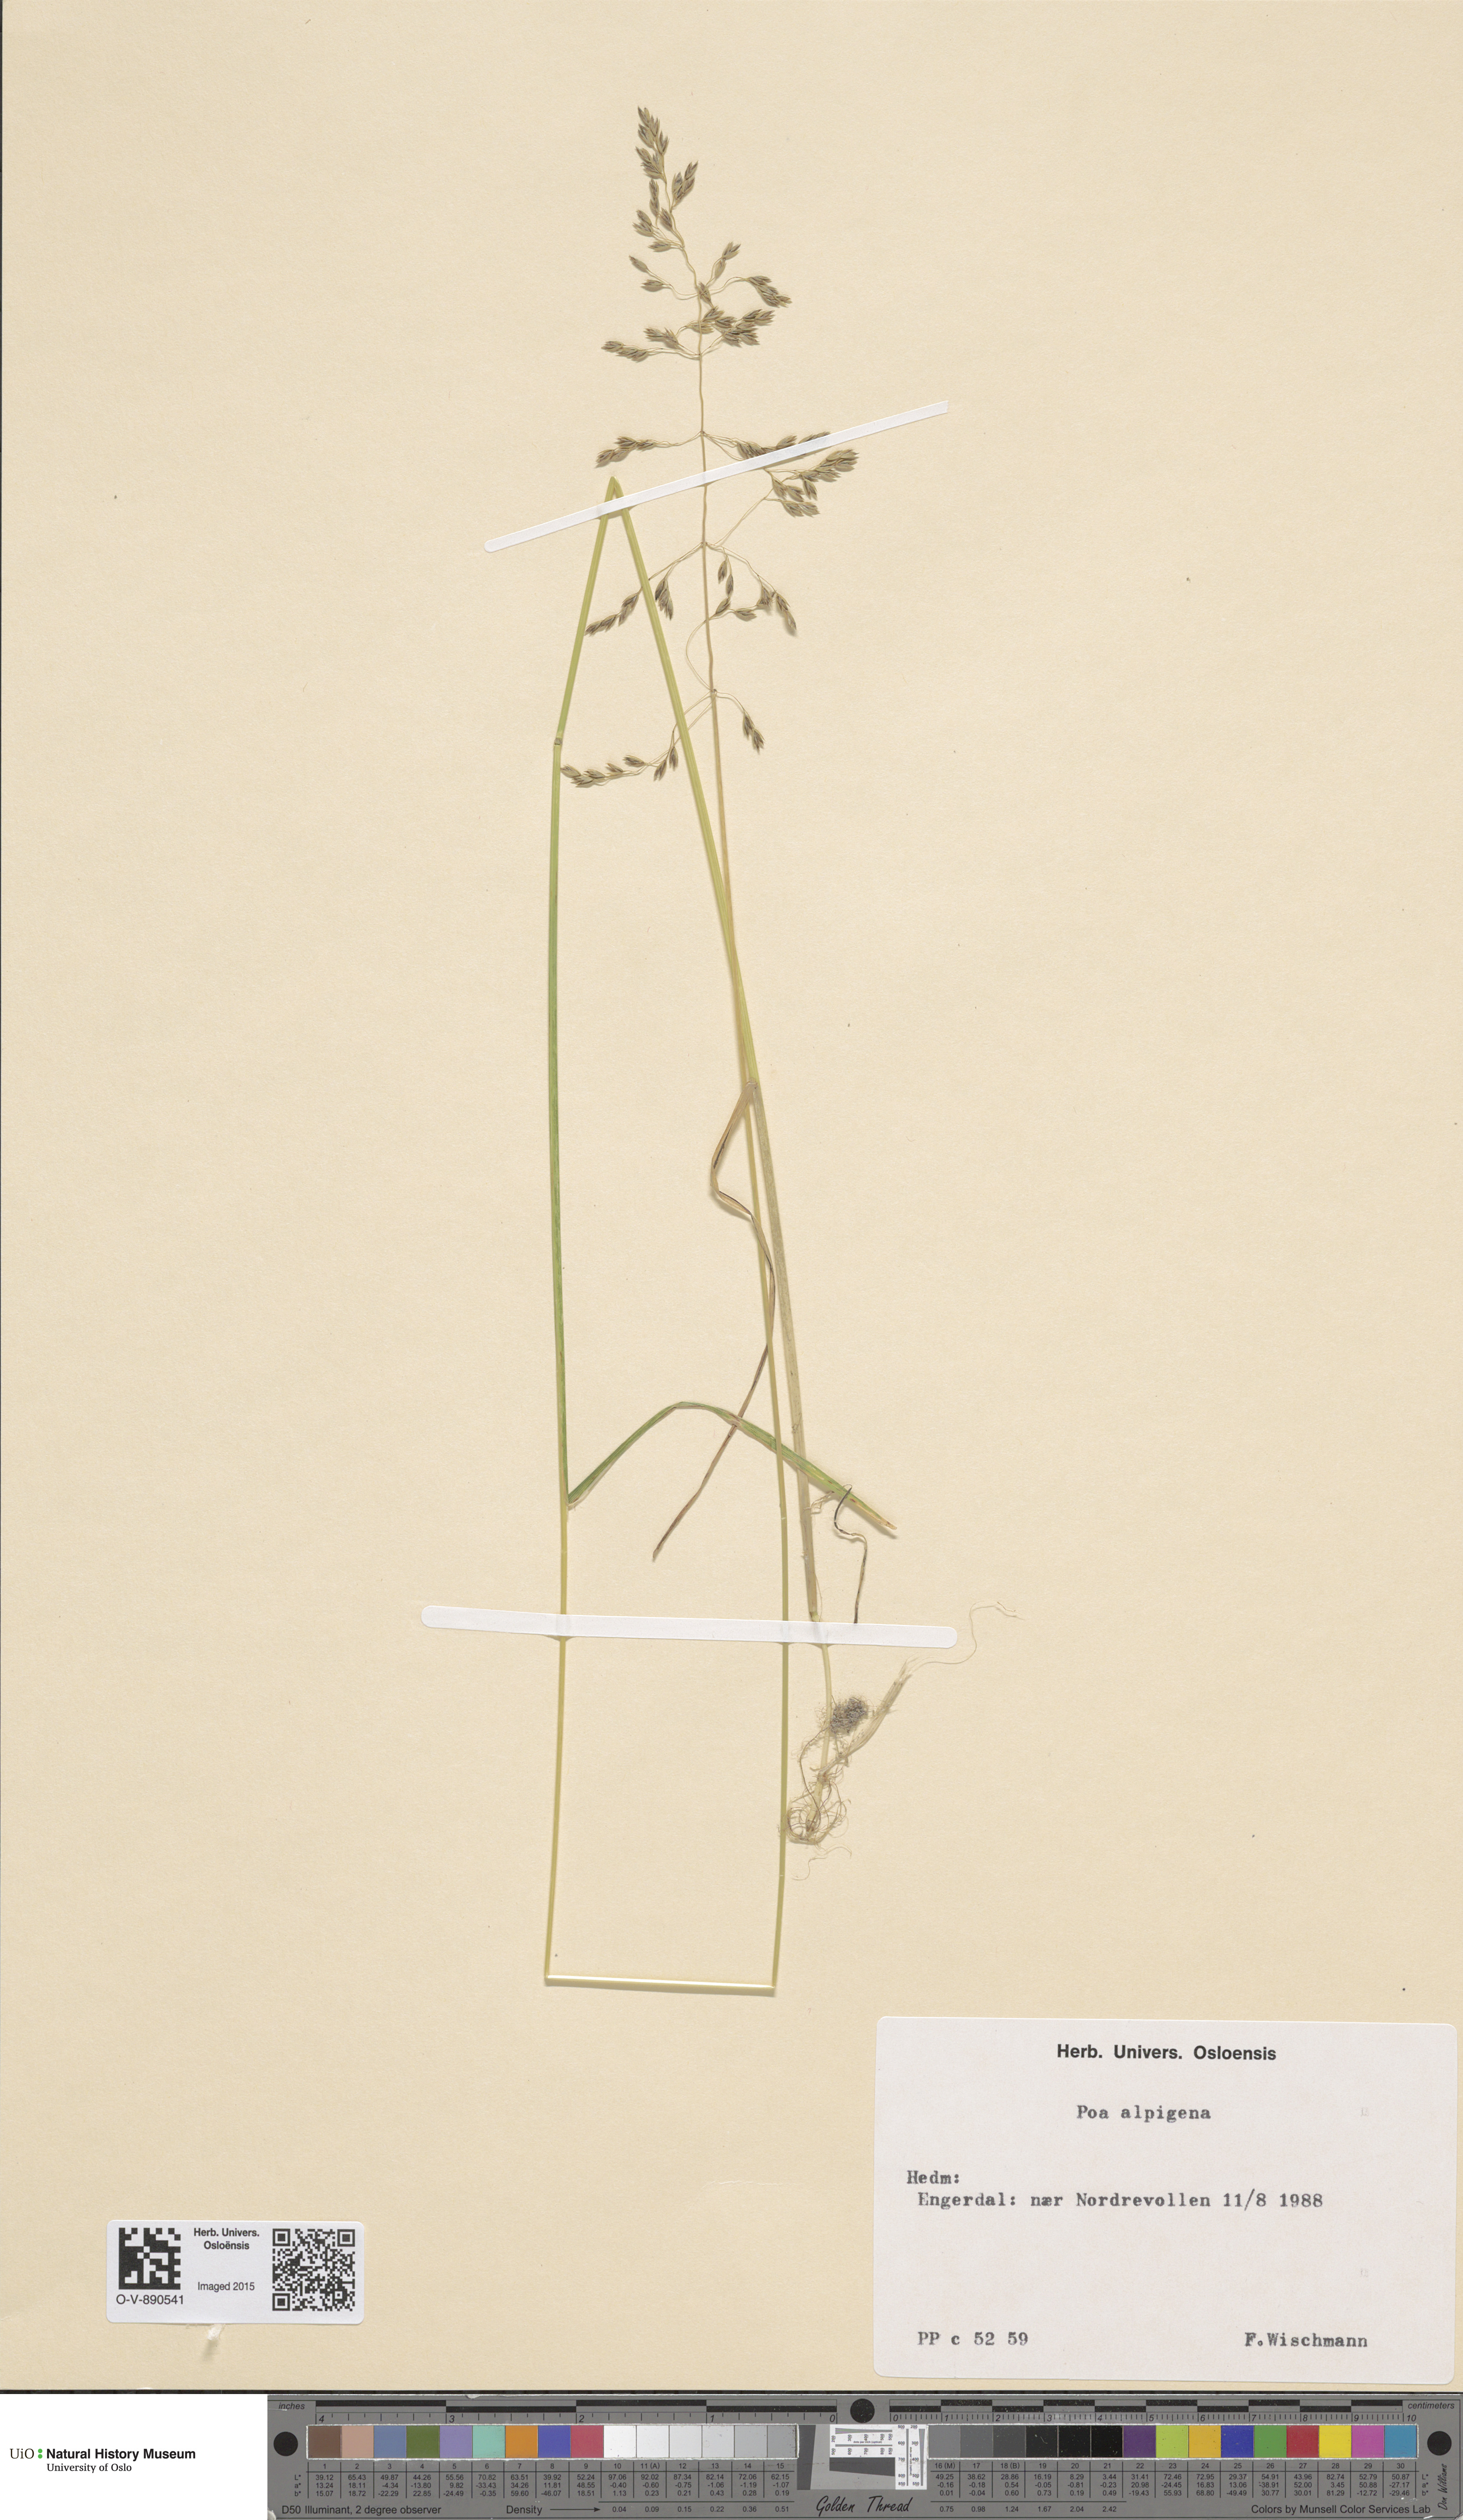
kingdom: Plantae
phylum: Tracheophyta
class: Liliopsida
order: Poales
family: Poaceae
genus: Poa
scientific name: Poa alpigena
